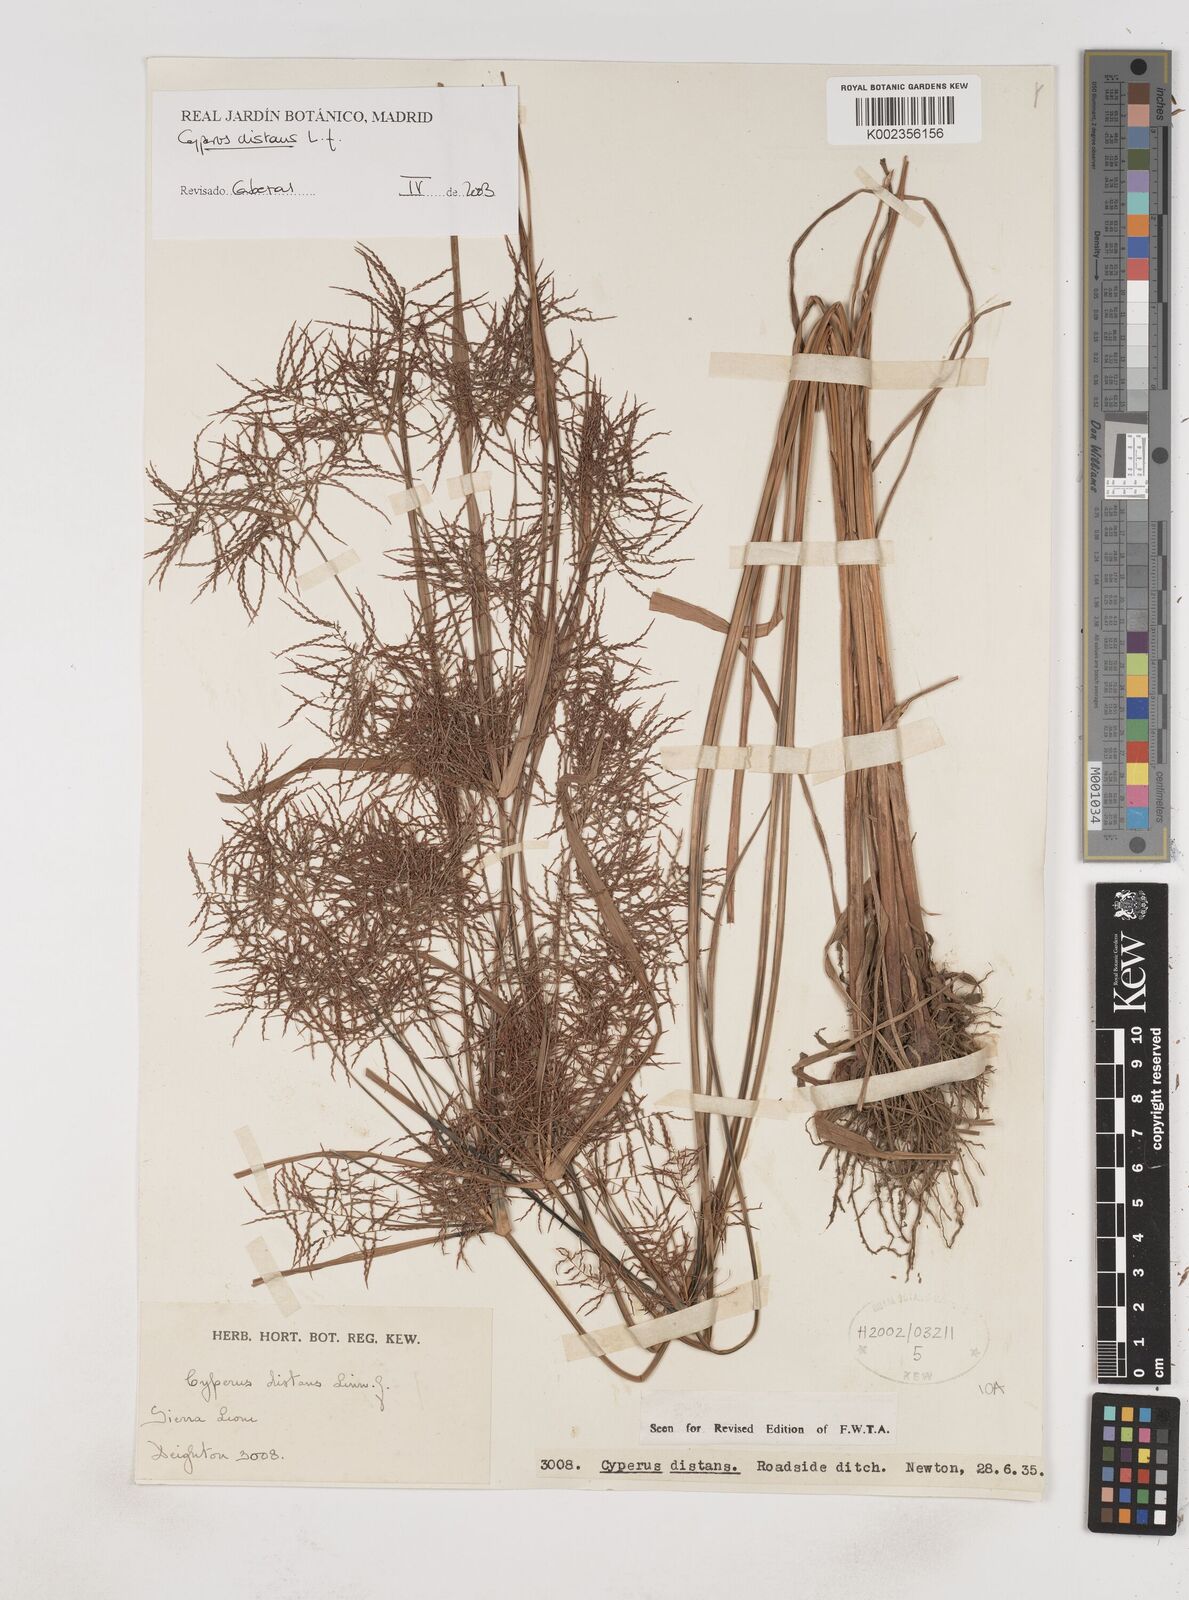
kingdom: Plantae
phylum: Tracheophyta
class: Liliopsida
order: Poales
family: Cyperaceae
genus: Cyperus
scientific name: Cyperus distans
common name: Slender cyperus
